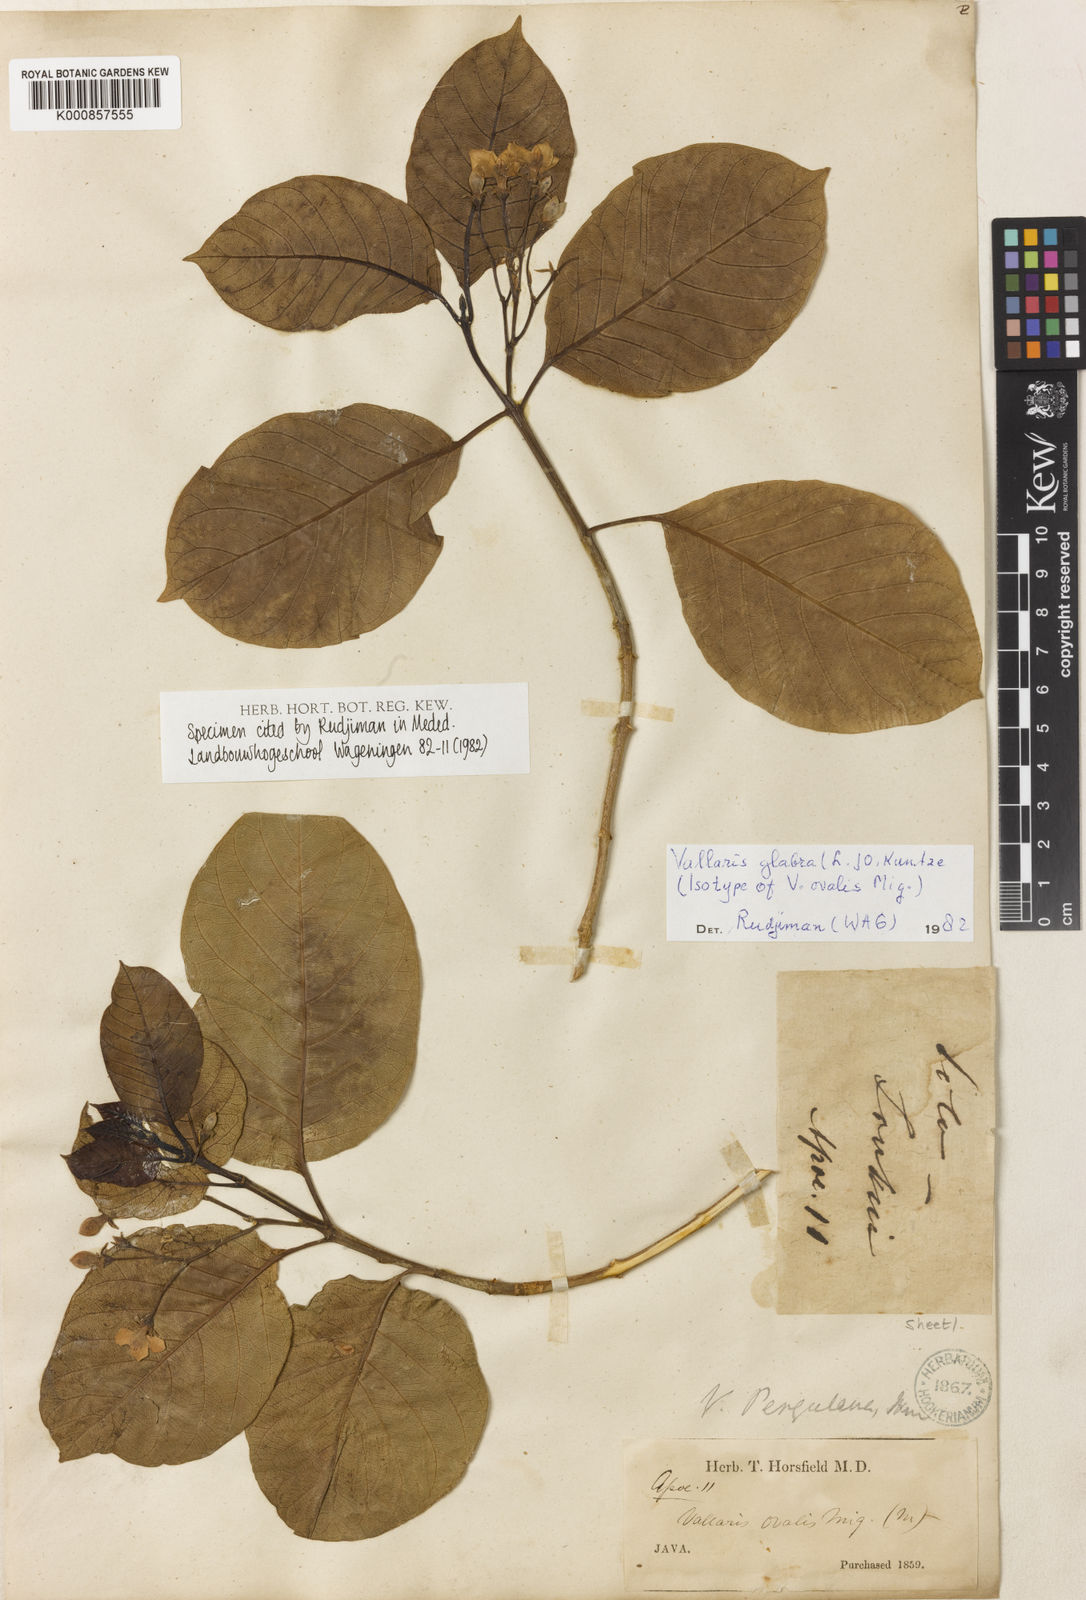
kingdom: Plantae
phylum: Tracheophyta
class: Magnoliopsida
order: Gentianales
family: Apocynaceae
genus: Vallaris
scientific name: Vallaris glabra
